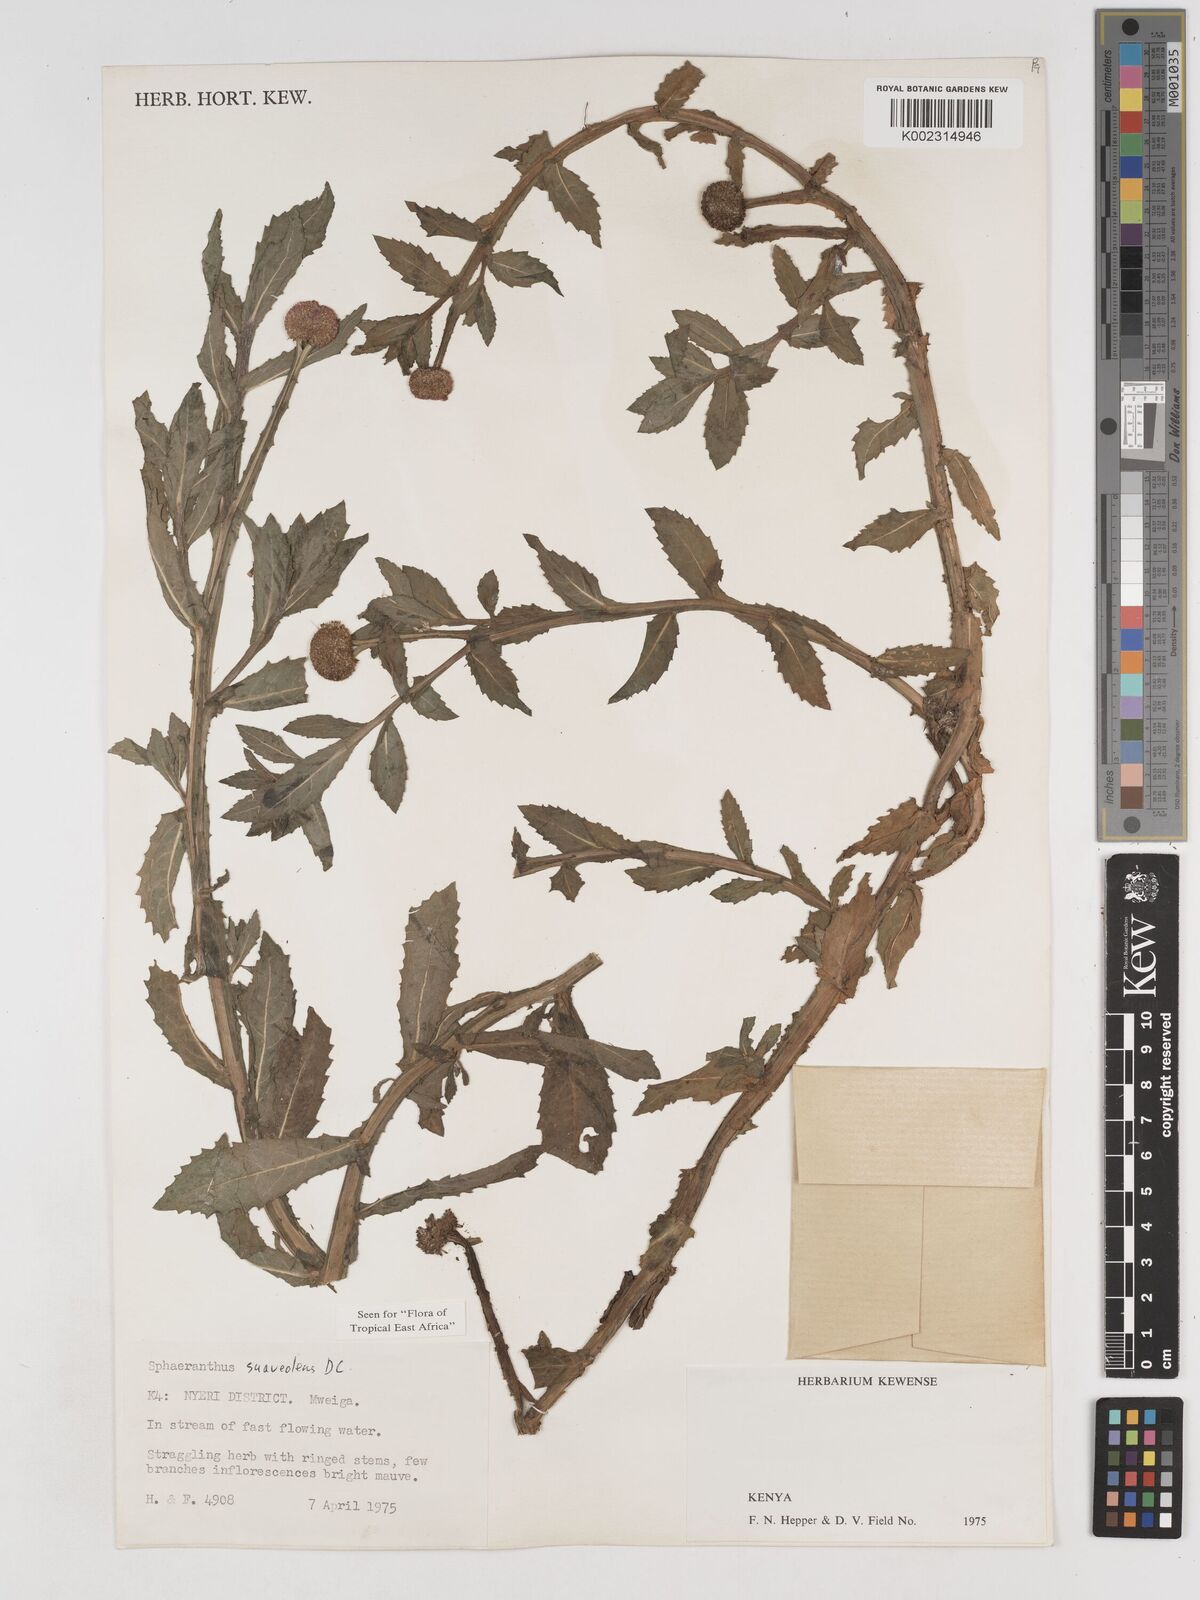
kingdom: Plantae
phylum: Tracheophyta
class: Magnoliopsida
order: Asterales
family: Asteraceae
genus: Sphaeranthus
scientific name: Sphaeranthus suaveolens
